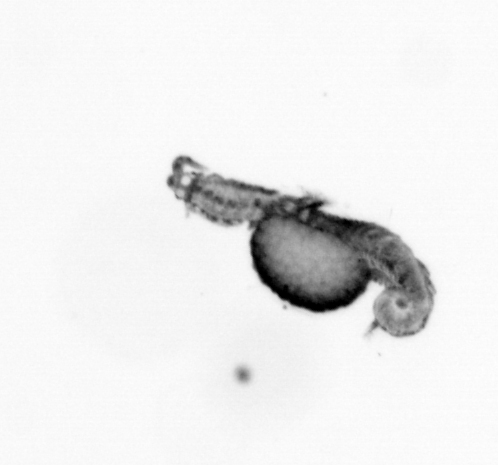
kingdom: Animalia
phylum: Annelida
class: Polychaeta
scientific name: Polychaeta
